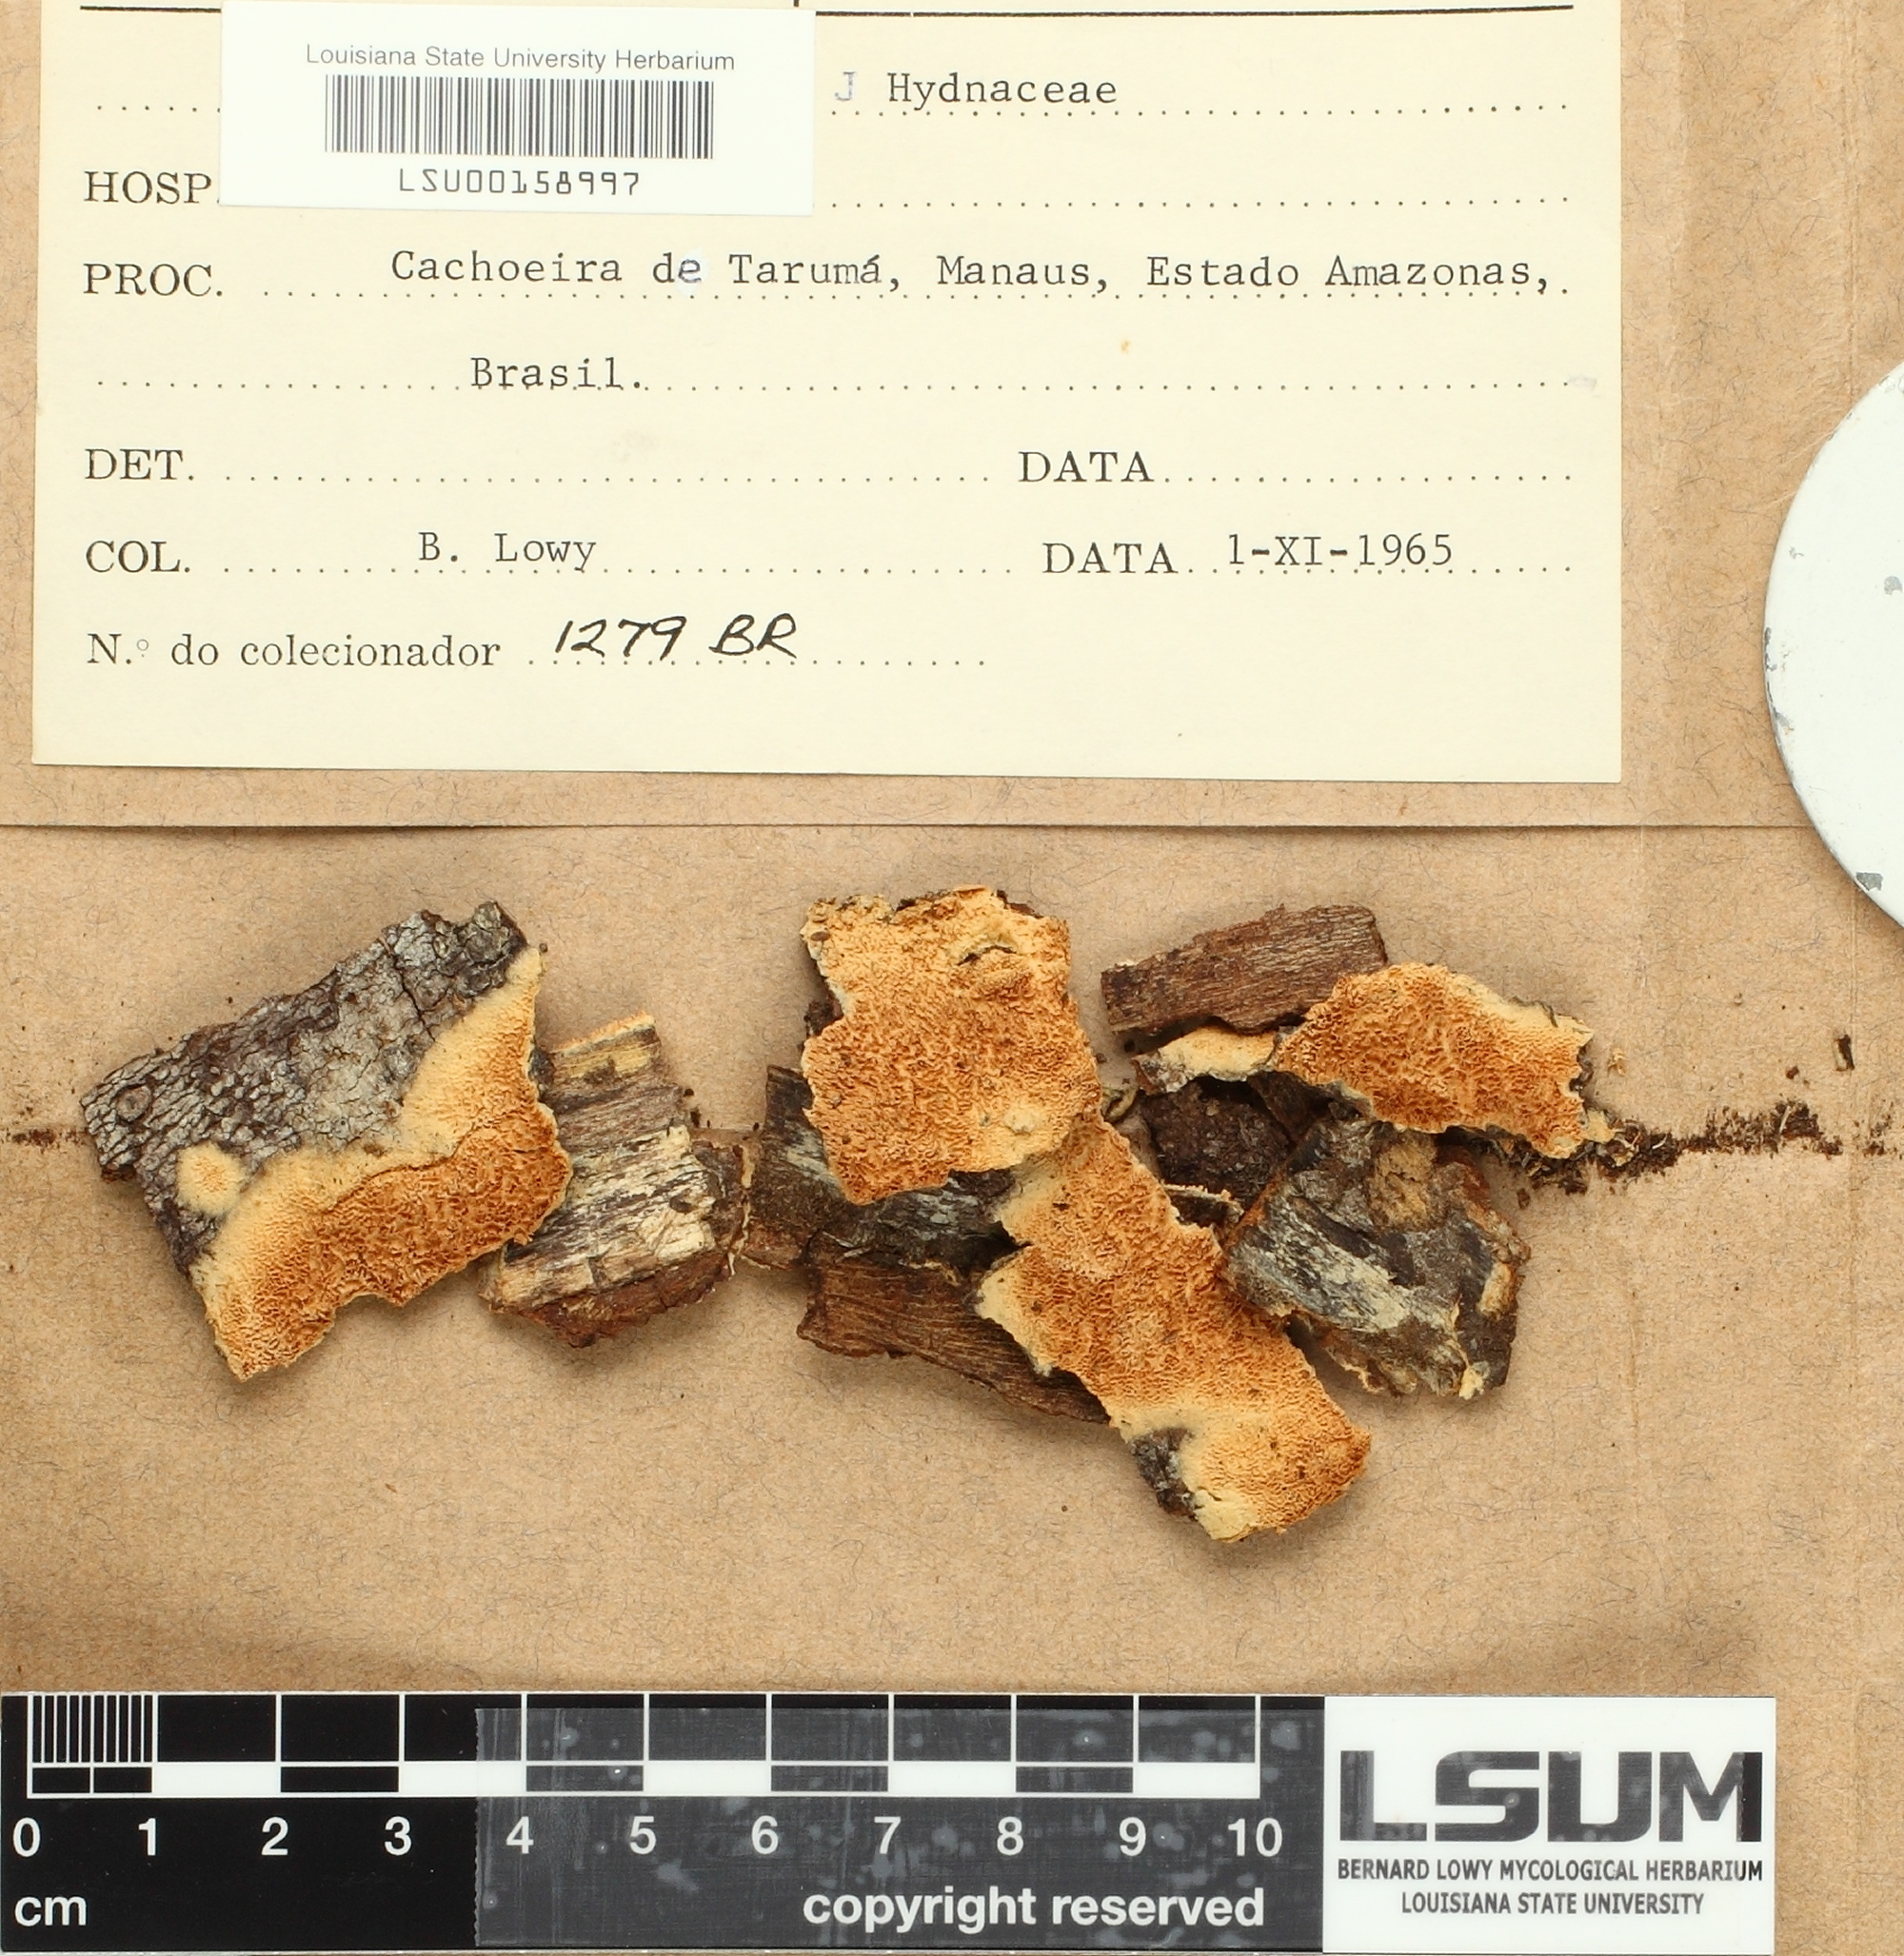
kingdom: Fungi
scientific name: Fungi
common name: Fungi
